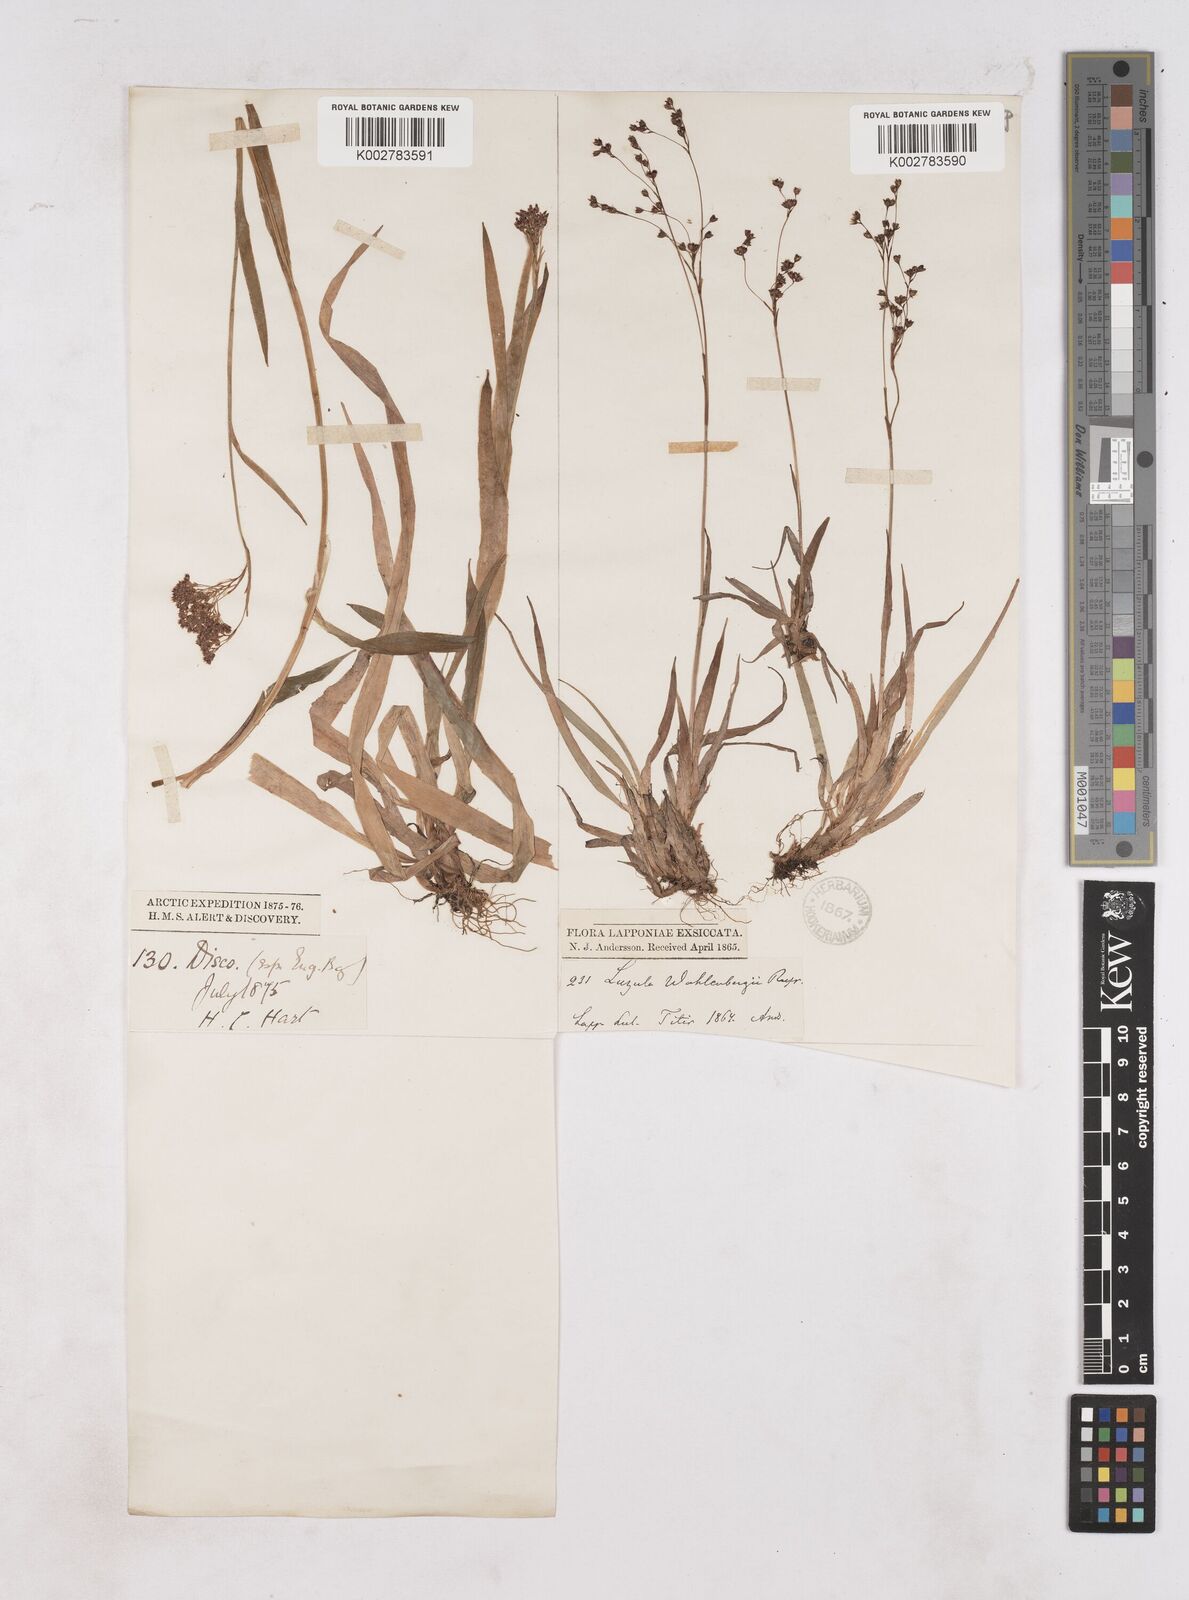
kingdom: Plantae
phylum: Tracheophyta
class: Liliopsida
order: Poales
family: Juncaceae
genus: Luzula
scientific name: Luzula
